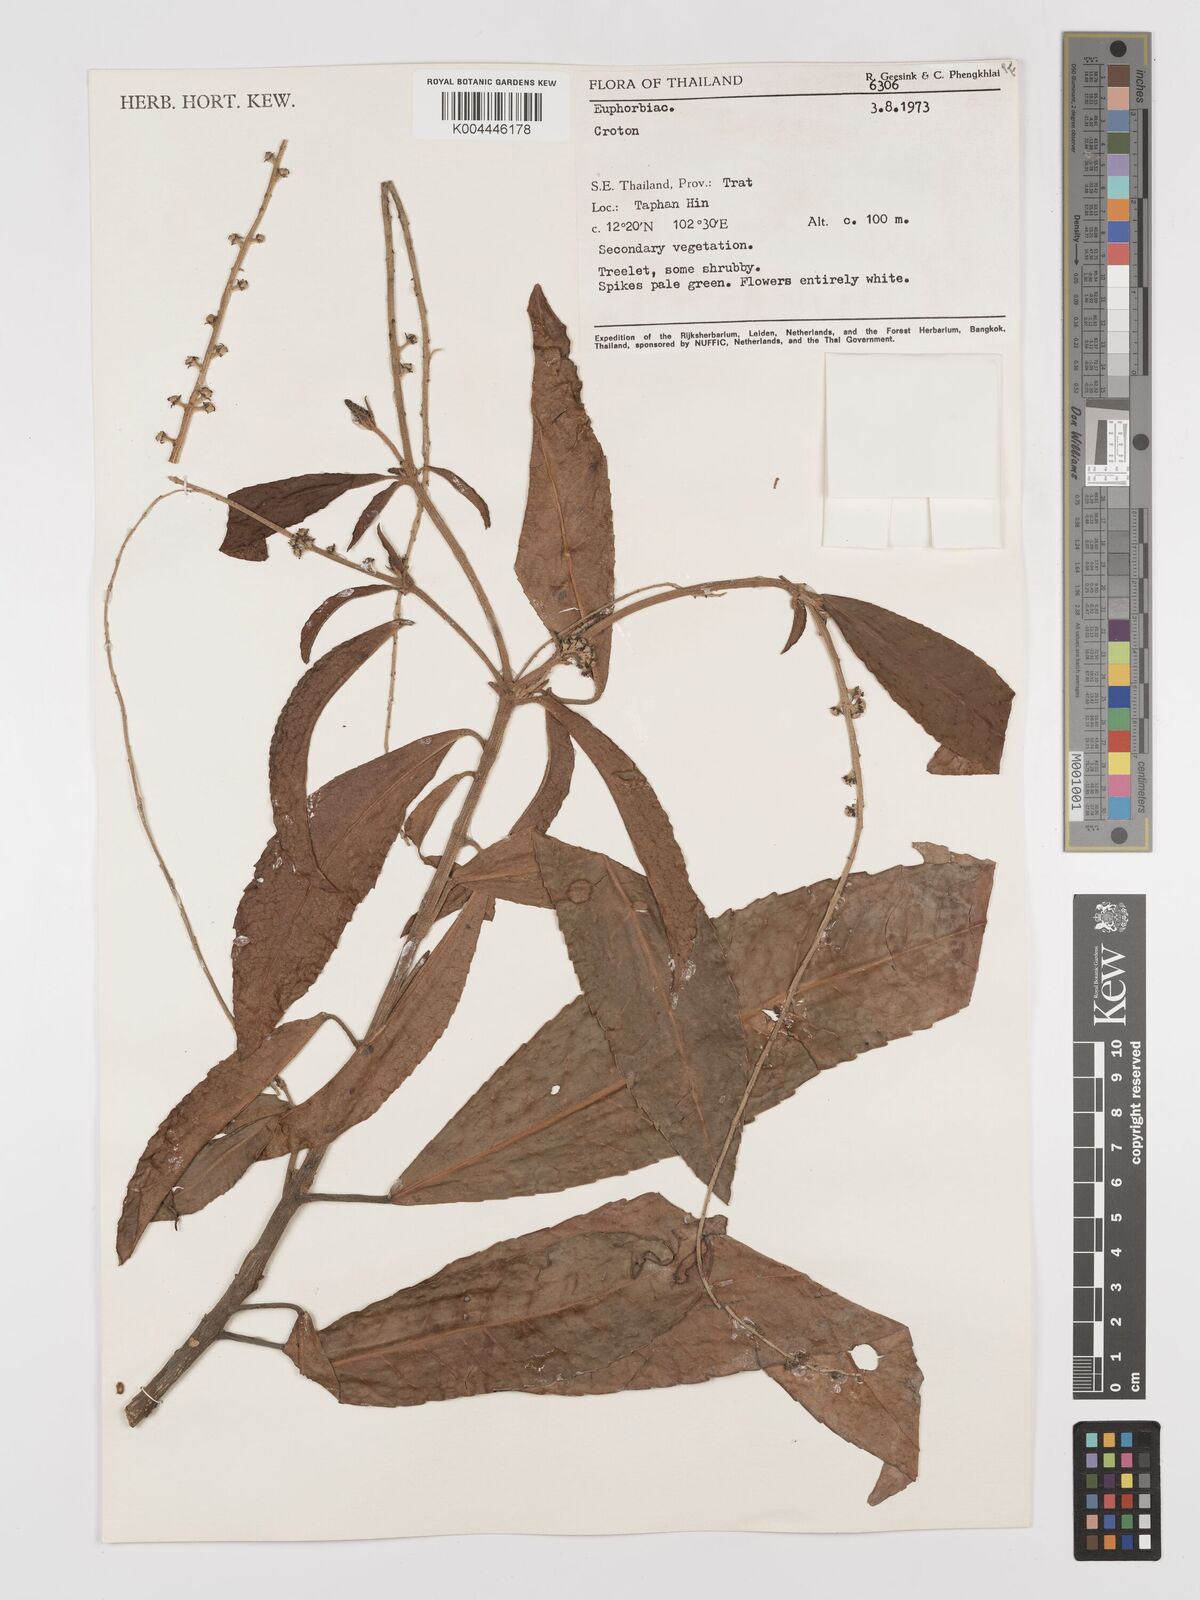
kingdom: Plantae
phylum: Tracheophyta
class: Magnoliopsida
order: Malpighiales
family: Euphorbiaceae
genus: Croton
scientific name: Croton delpyi
